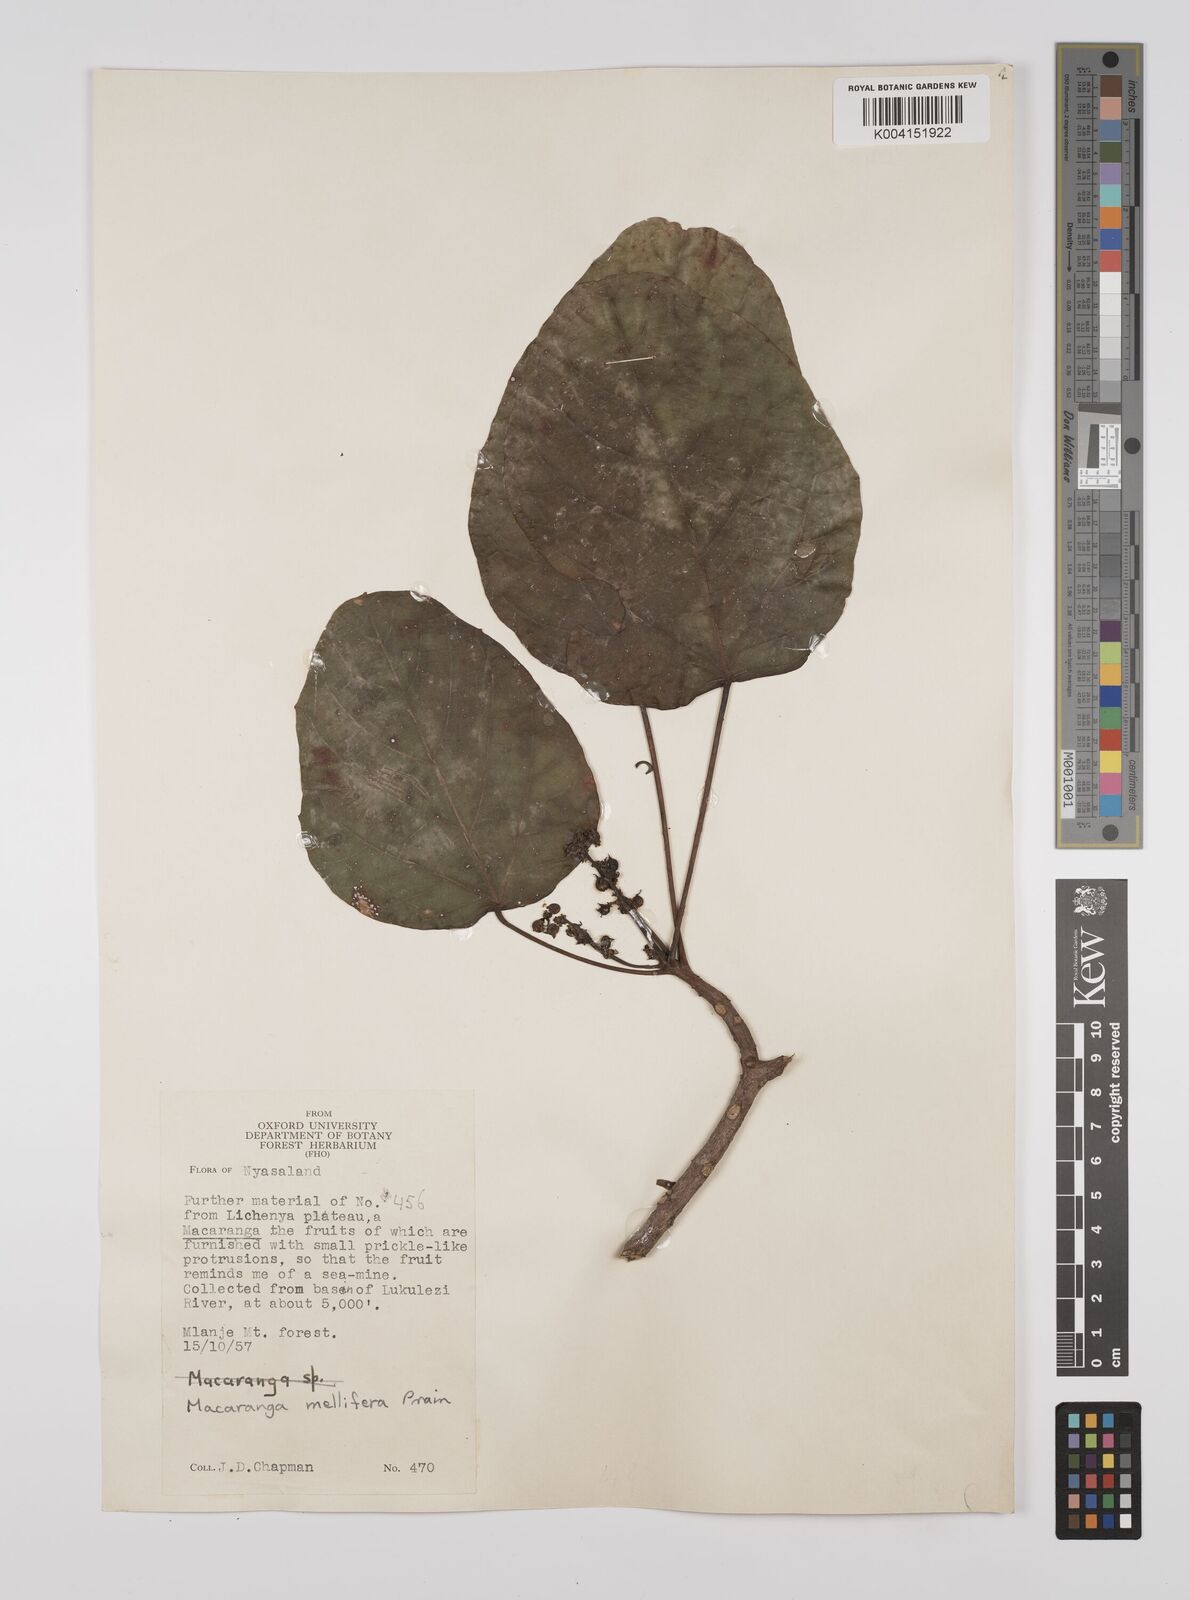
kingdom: Plantae
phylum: Tracheophyta
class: Magnoliopsida
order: Malpighiales
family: Euphorbiaceae
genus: Macaranga
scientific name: Macaranga mellifera
